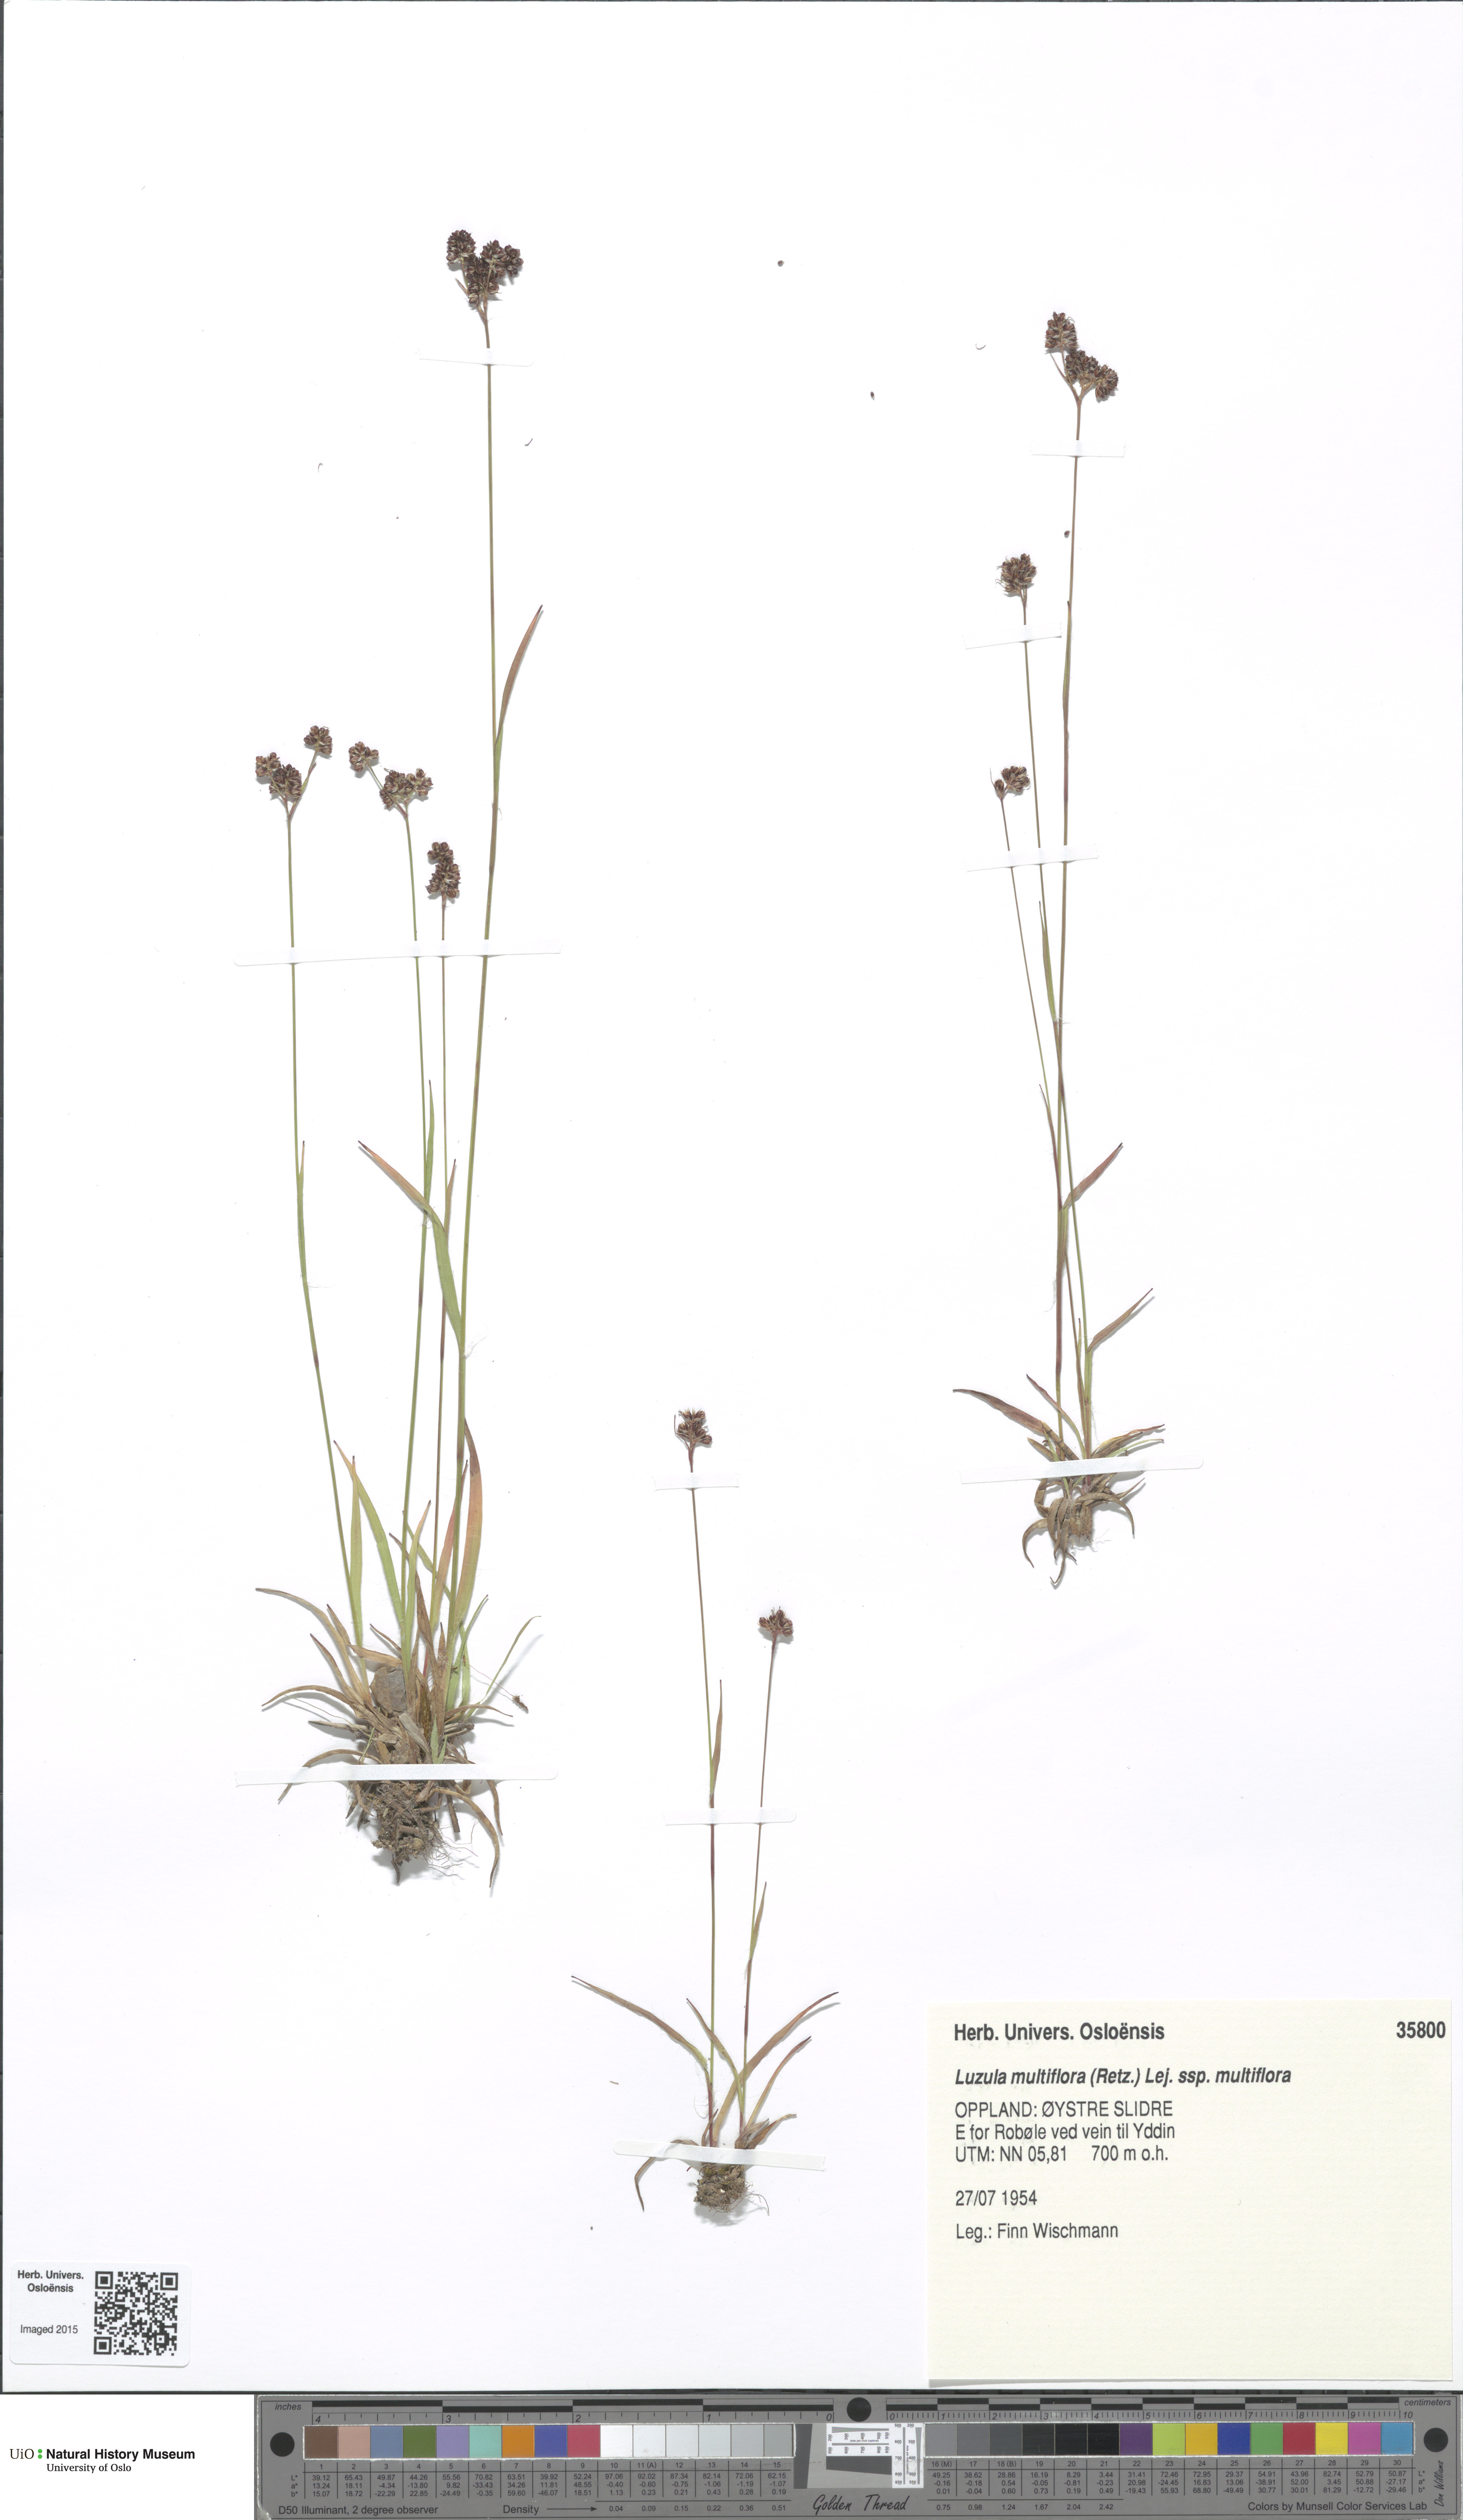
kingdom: Plantae
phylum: Tracheophyta
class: Liliopsida
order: Poales
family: Juncaceae
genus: Luzula
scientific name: Luzula multiflora
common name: Heath wood-rush
